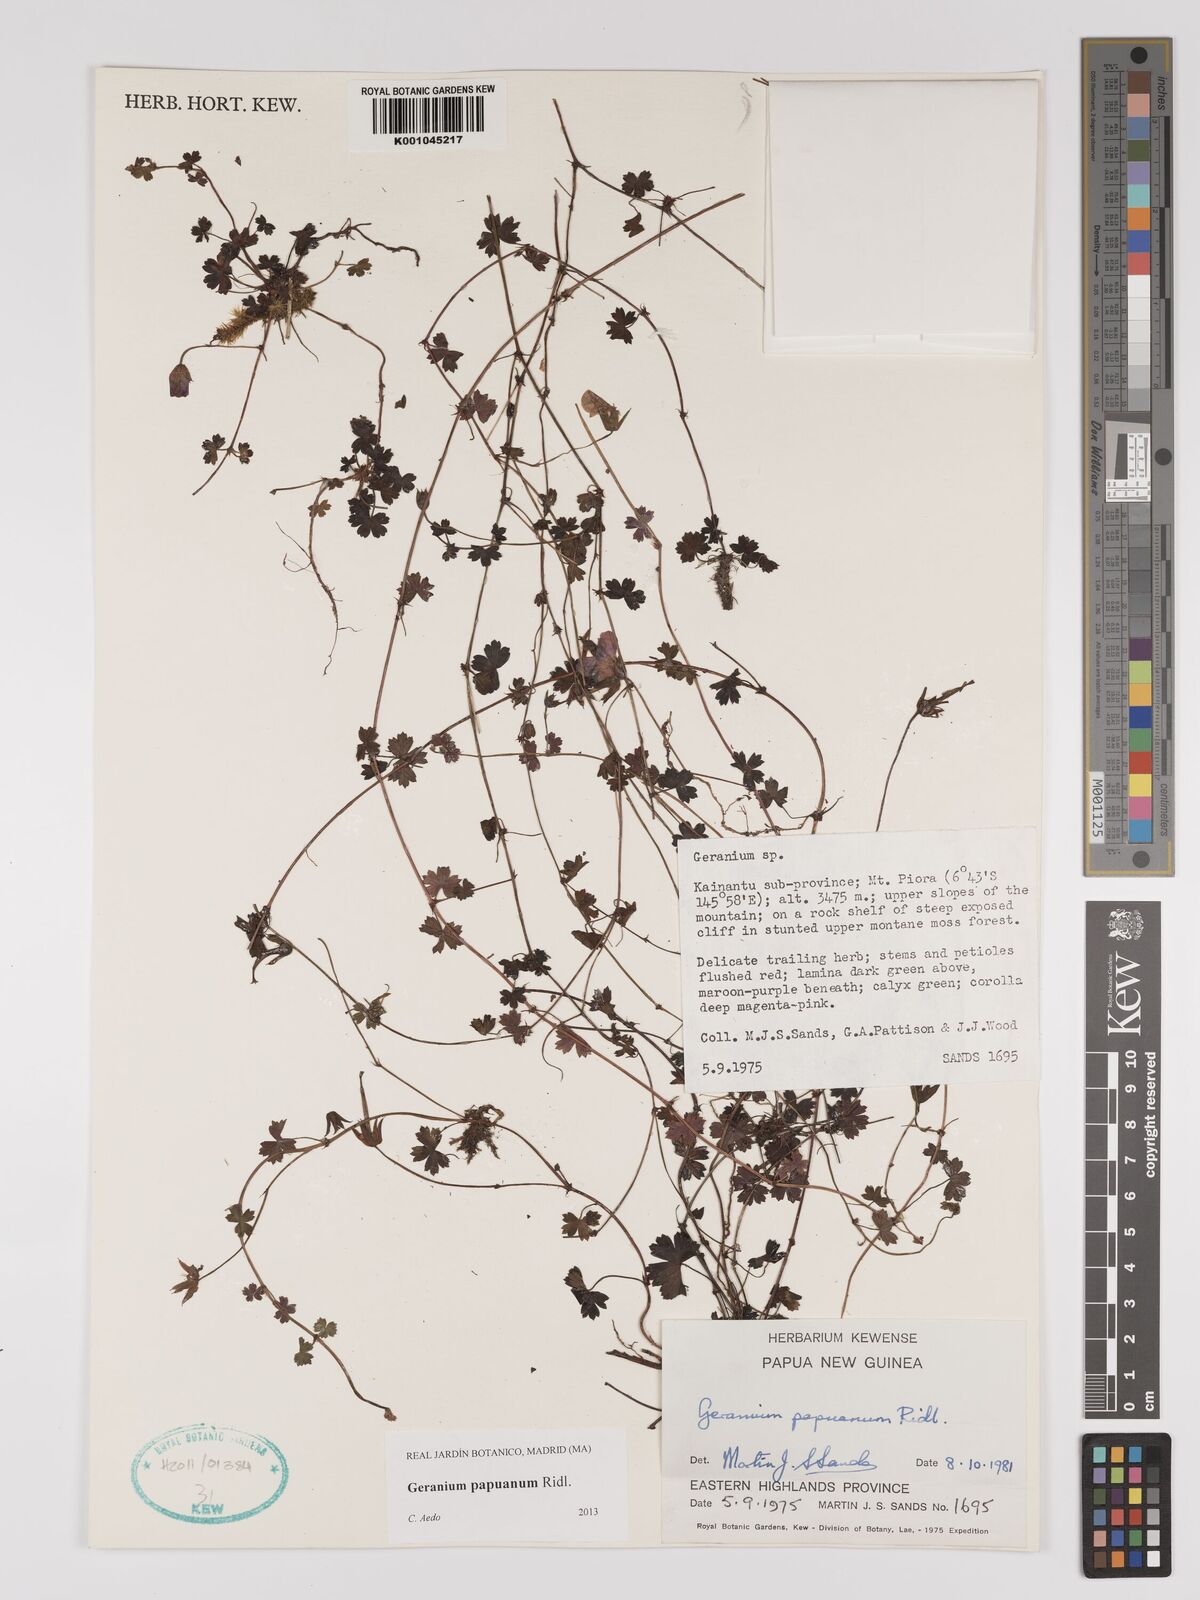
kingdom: Plantae
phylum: Tracheophyta
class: Magnoliopsida
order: Geraniales
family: Geraniaceae
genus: Geranium
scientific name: Geranium papuanum
